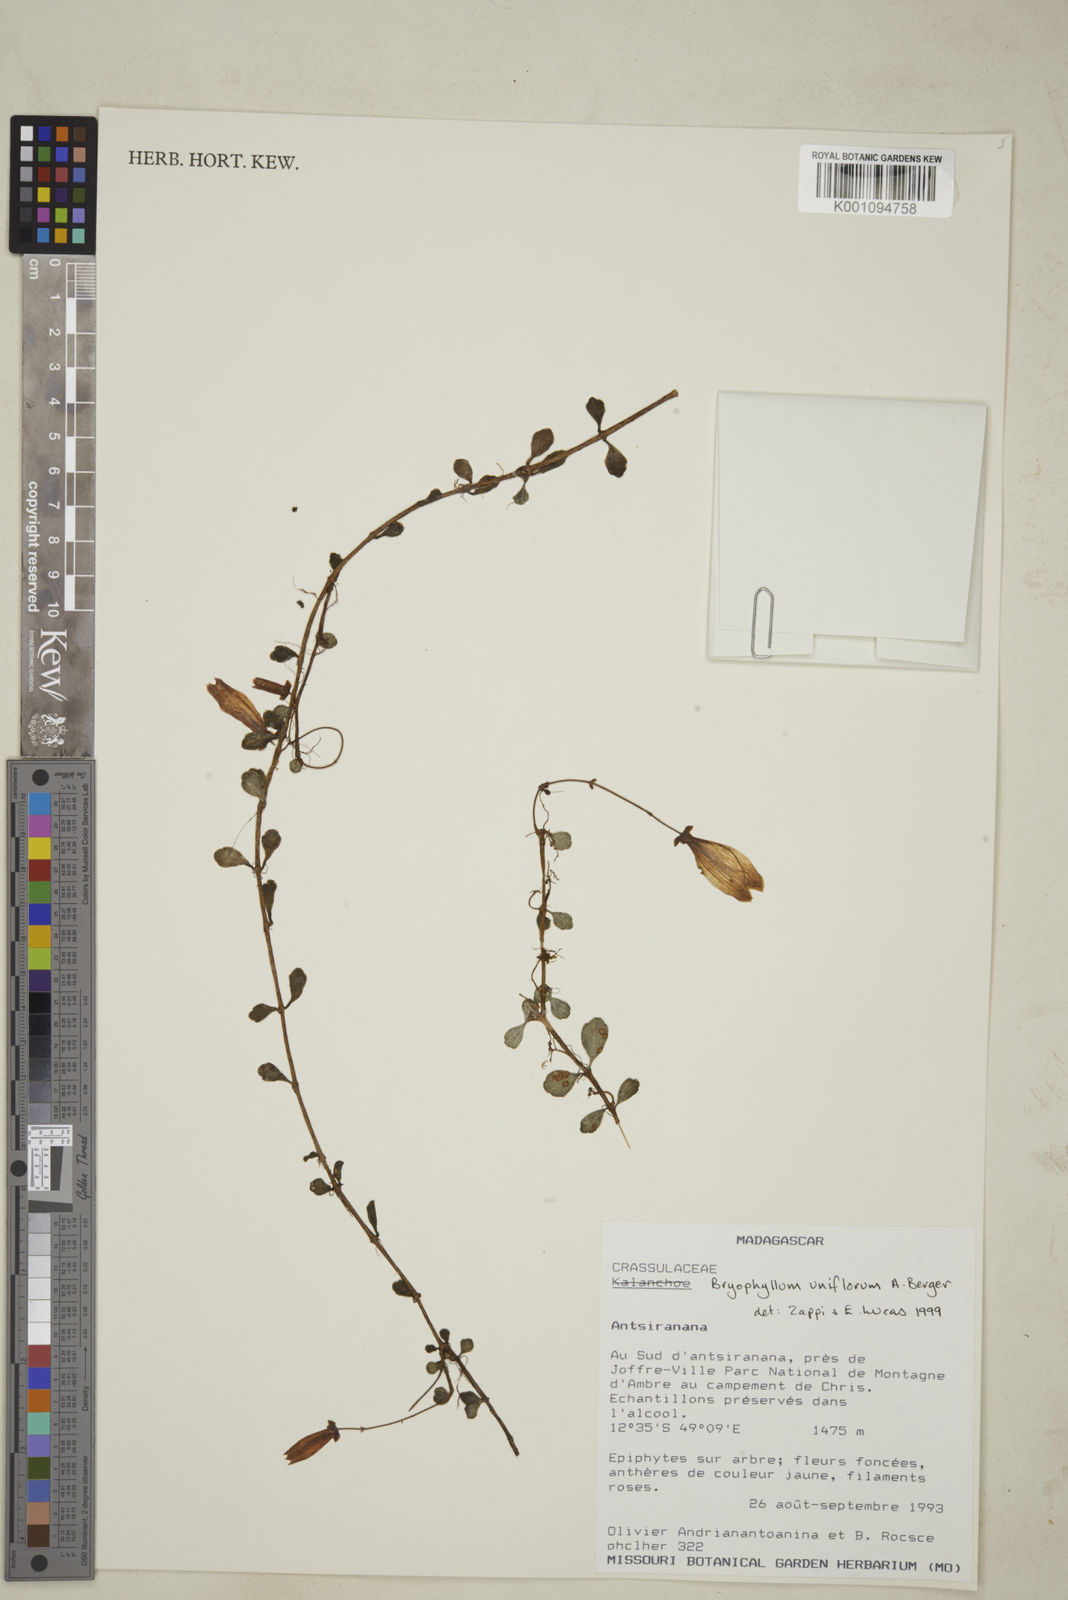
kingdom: Plantae
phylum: Tracheophyta
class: Magnoliopsida
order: Saxifragales
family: Crassulaceae
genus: Kalanchoe
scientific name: Kalanchoe uniflora
